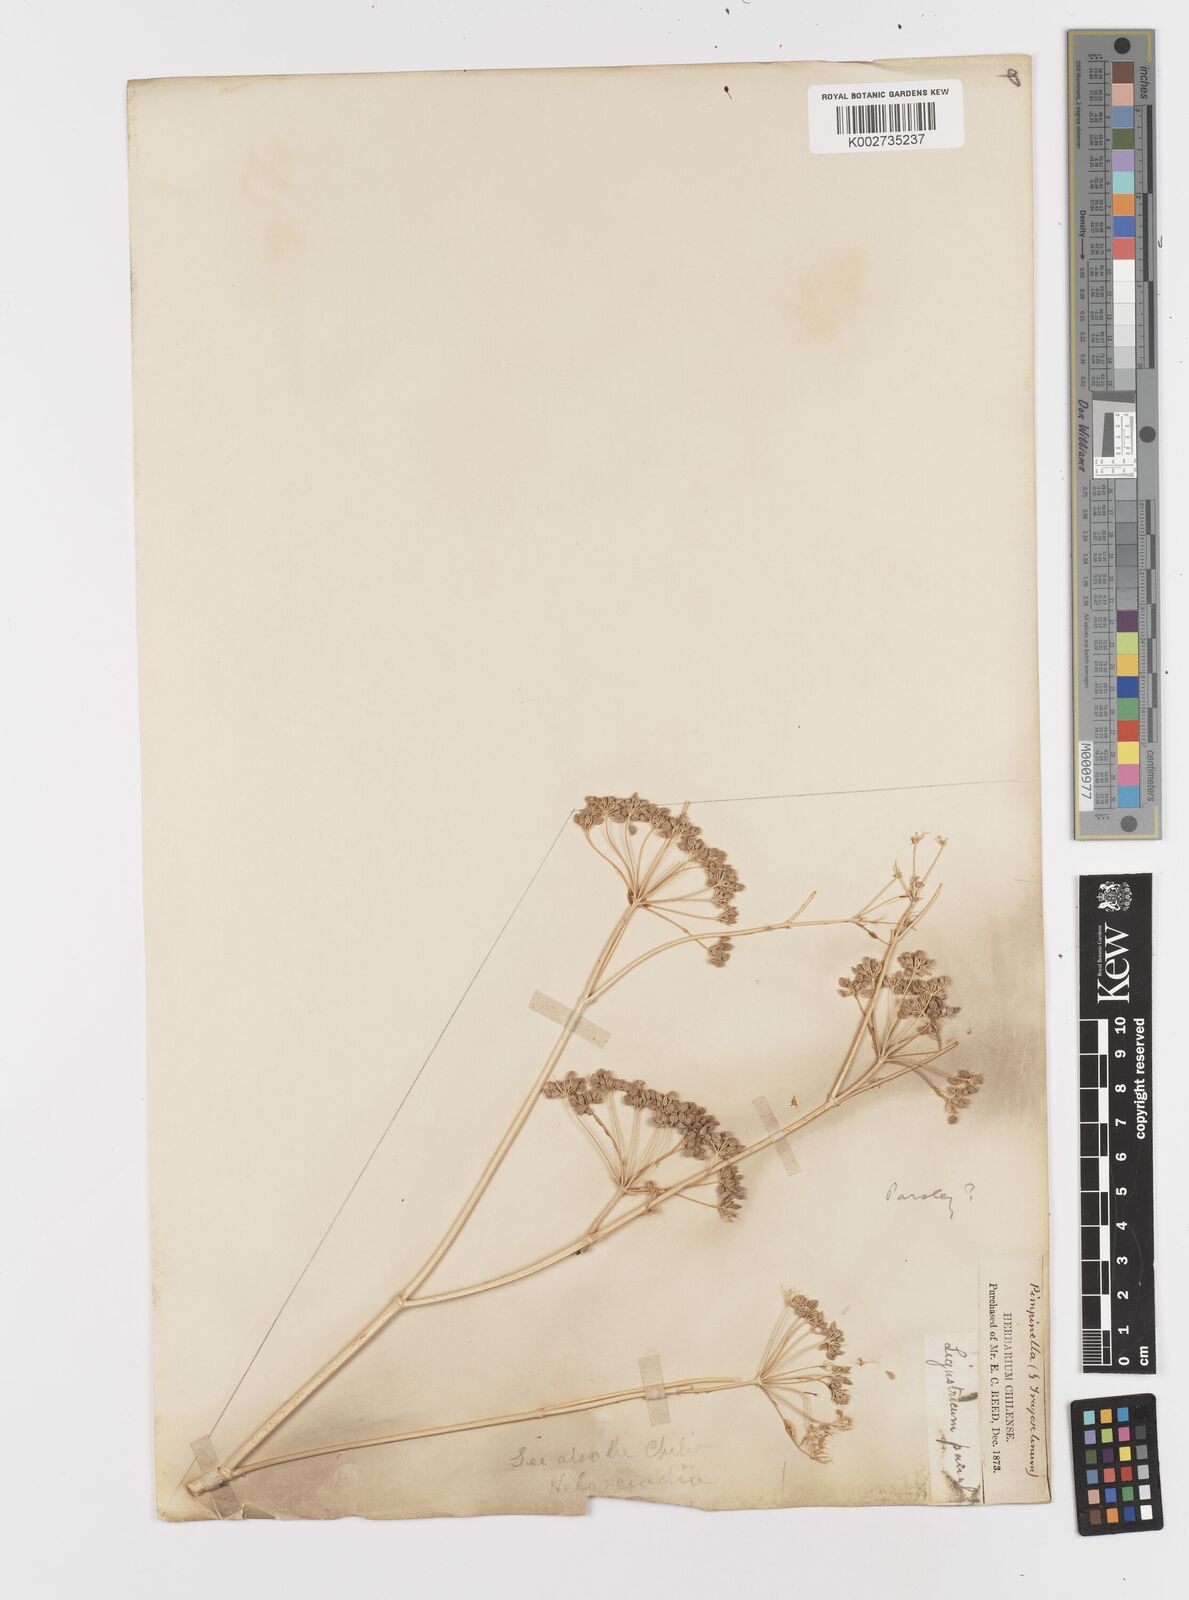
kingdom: Plantae
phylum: Tracheophyta
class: Magnoliopsida
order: Apiales
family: Apiaceae
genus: Petroselinum
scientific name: Petroselinum crispum
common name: Parsley
